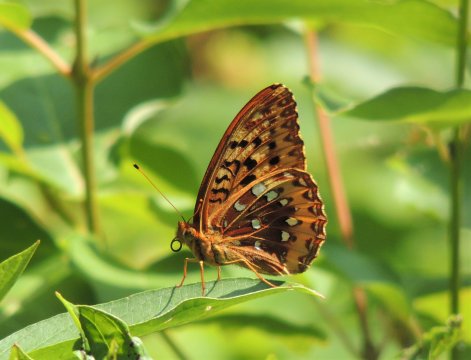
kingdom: Animalia
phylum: Arthropoda
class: Insecta
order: Lepidoptera
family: Nymphalidae
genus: Speyeria
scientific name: Speyeria cybele
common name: Great Spangled Fritillary
